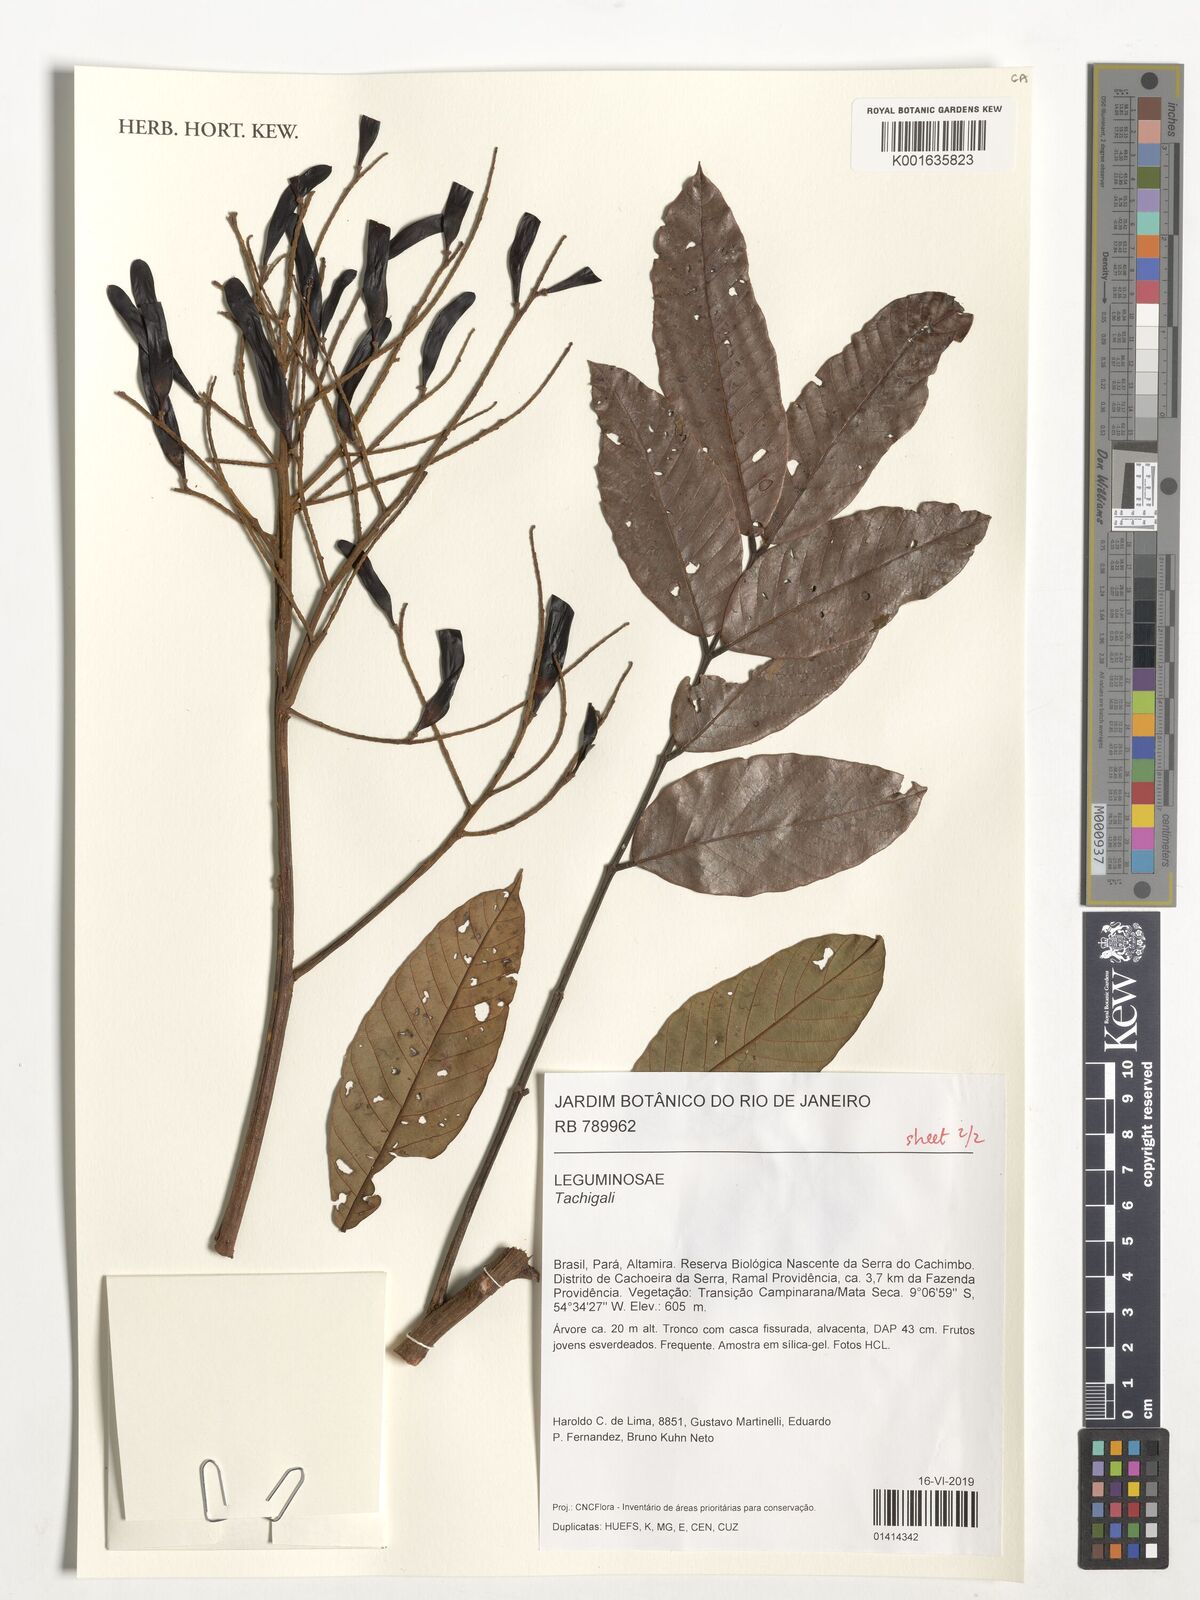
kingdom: Plantae
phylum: Tracheophyta
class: Magnoliopsida
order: Fabales
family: Fabaceae
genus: Tachigali
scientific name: Tachigali
